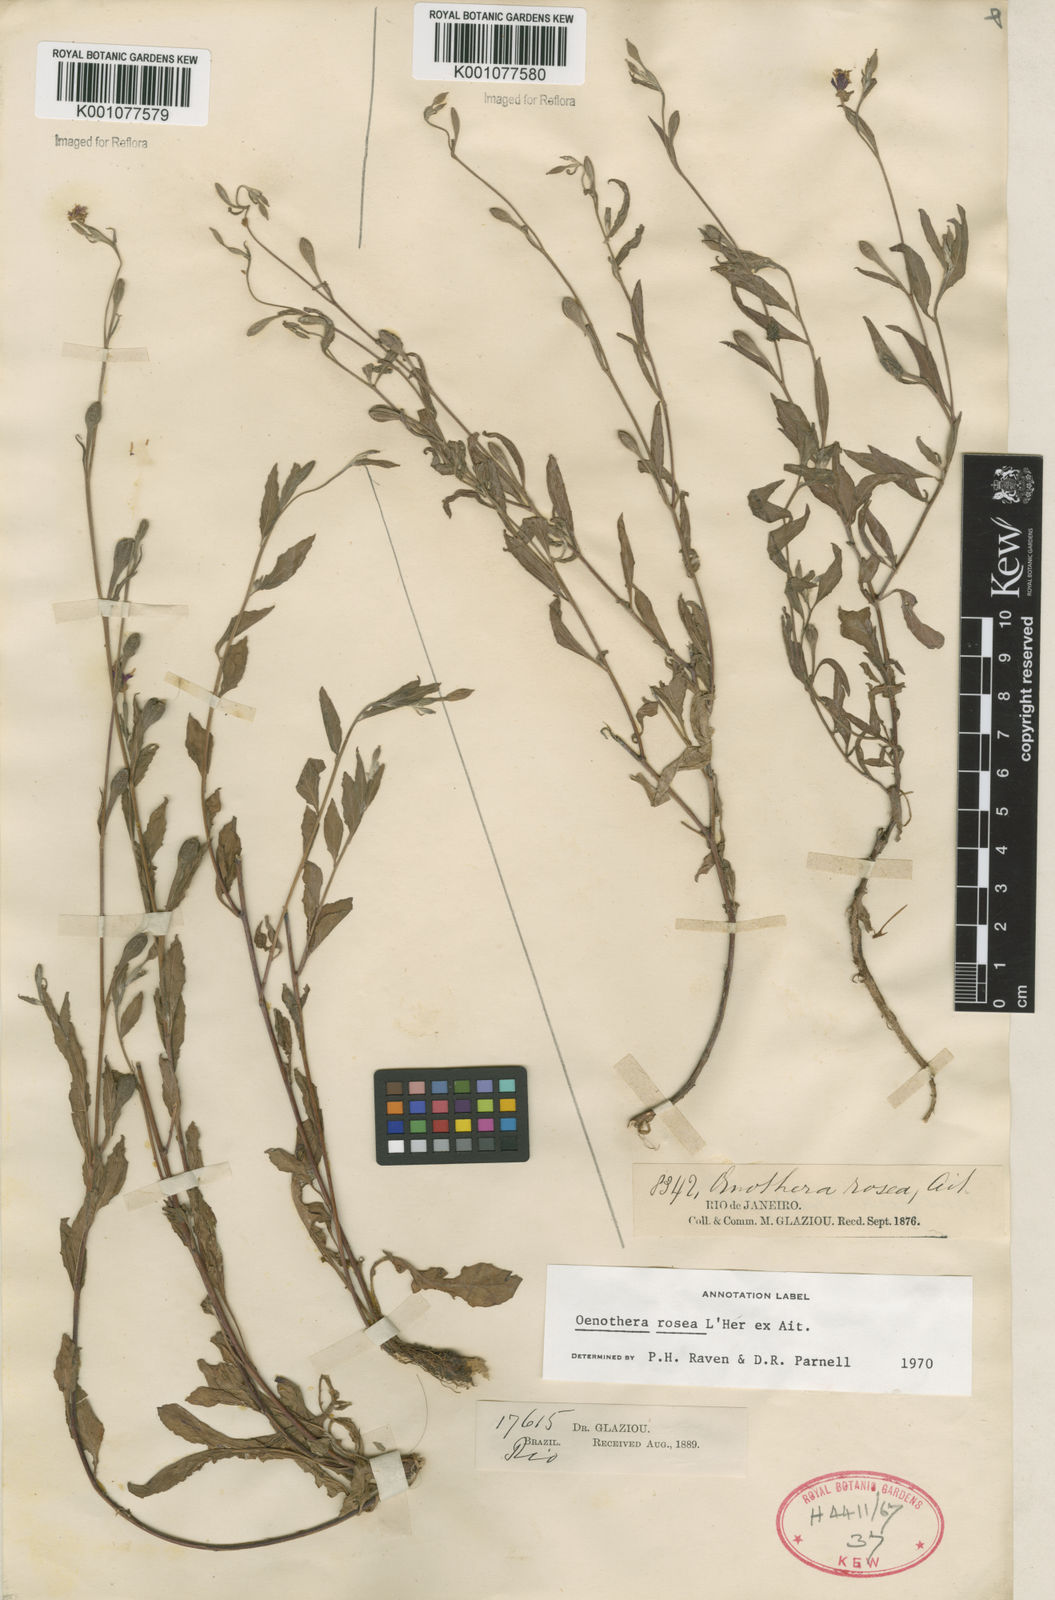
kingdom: Plantae
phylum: Tracheophyta
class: Magnoliopsida
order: Myrtales
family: Onagraceae
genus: Oenothera
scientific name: Oenothera rosea
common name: Rosy evening-primrose
